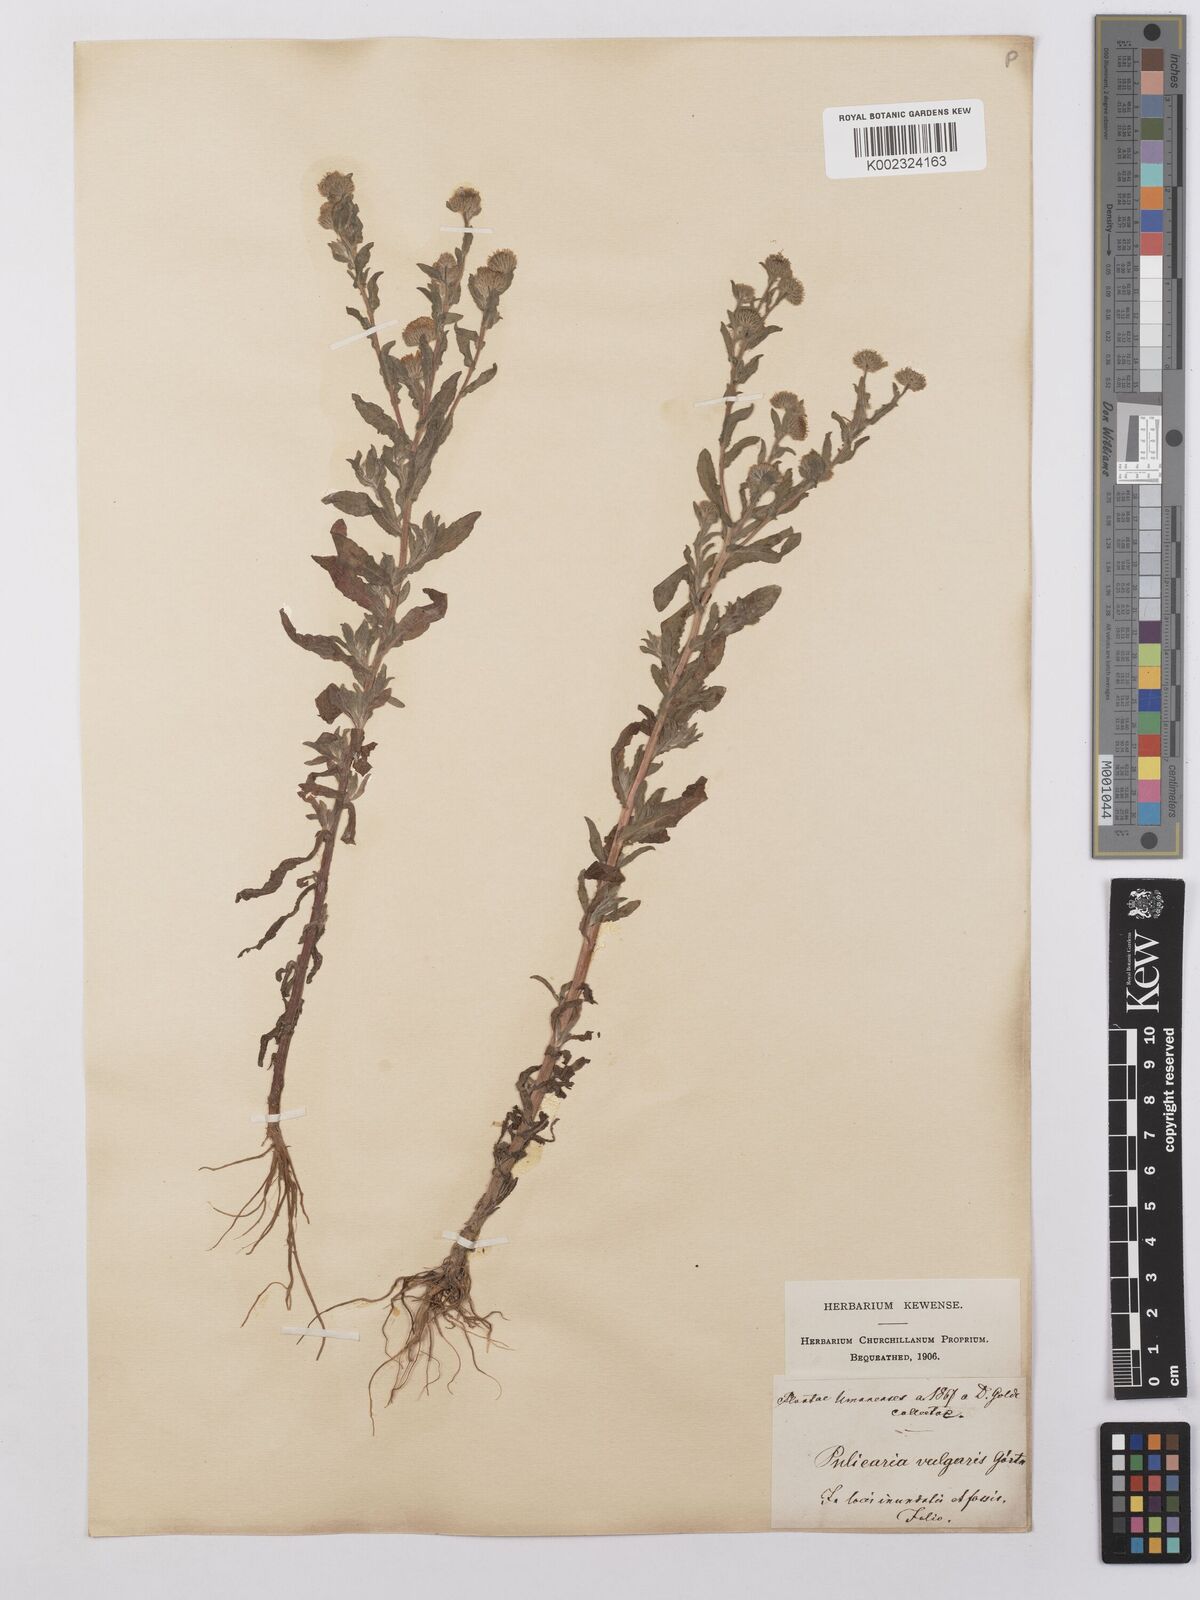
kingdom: Plantae
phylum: Tracheophyta
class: Magnoliopsida
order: Asterales
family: Asteraceae
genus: Pulicaria
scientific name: Pulicaria vulgaris
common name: Small fleabane
